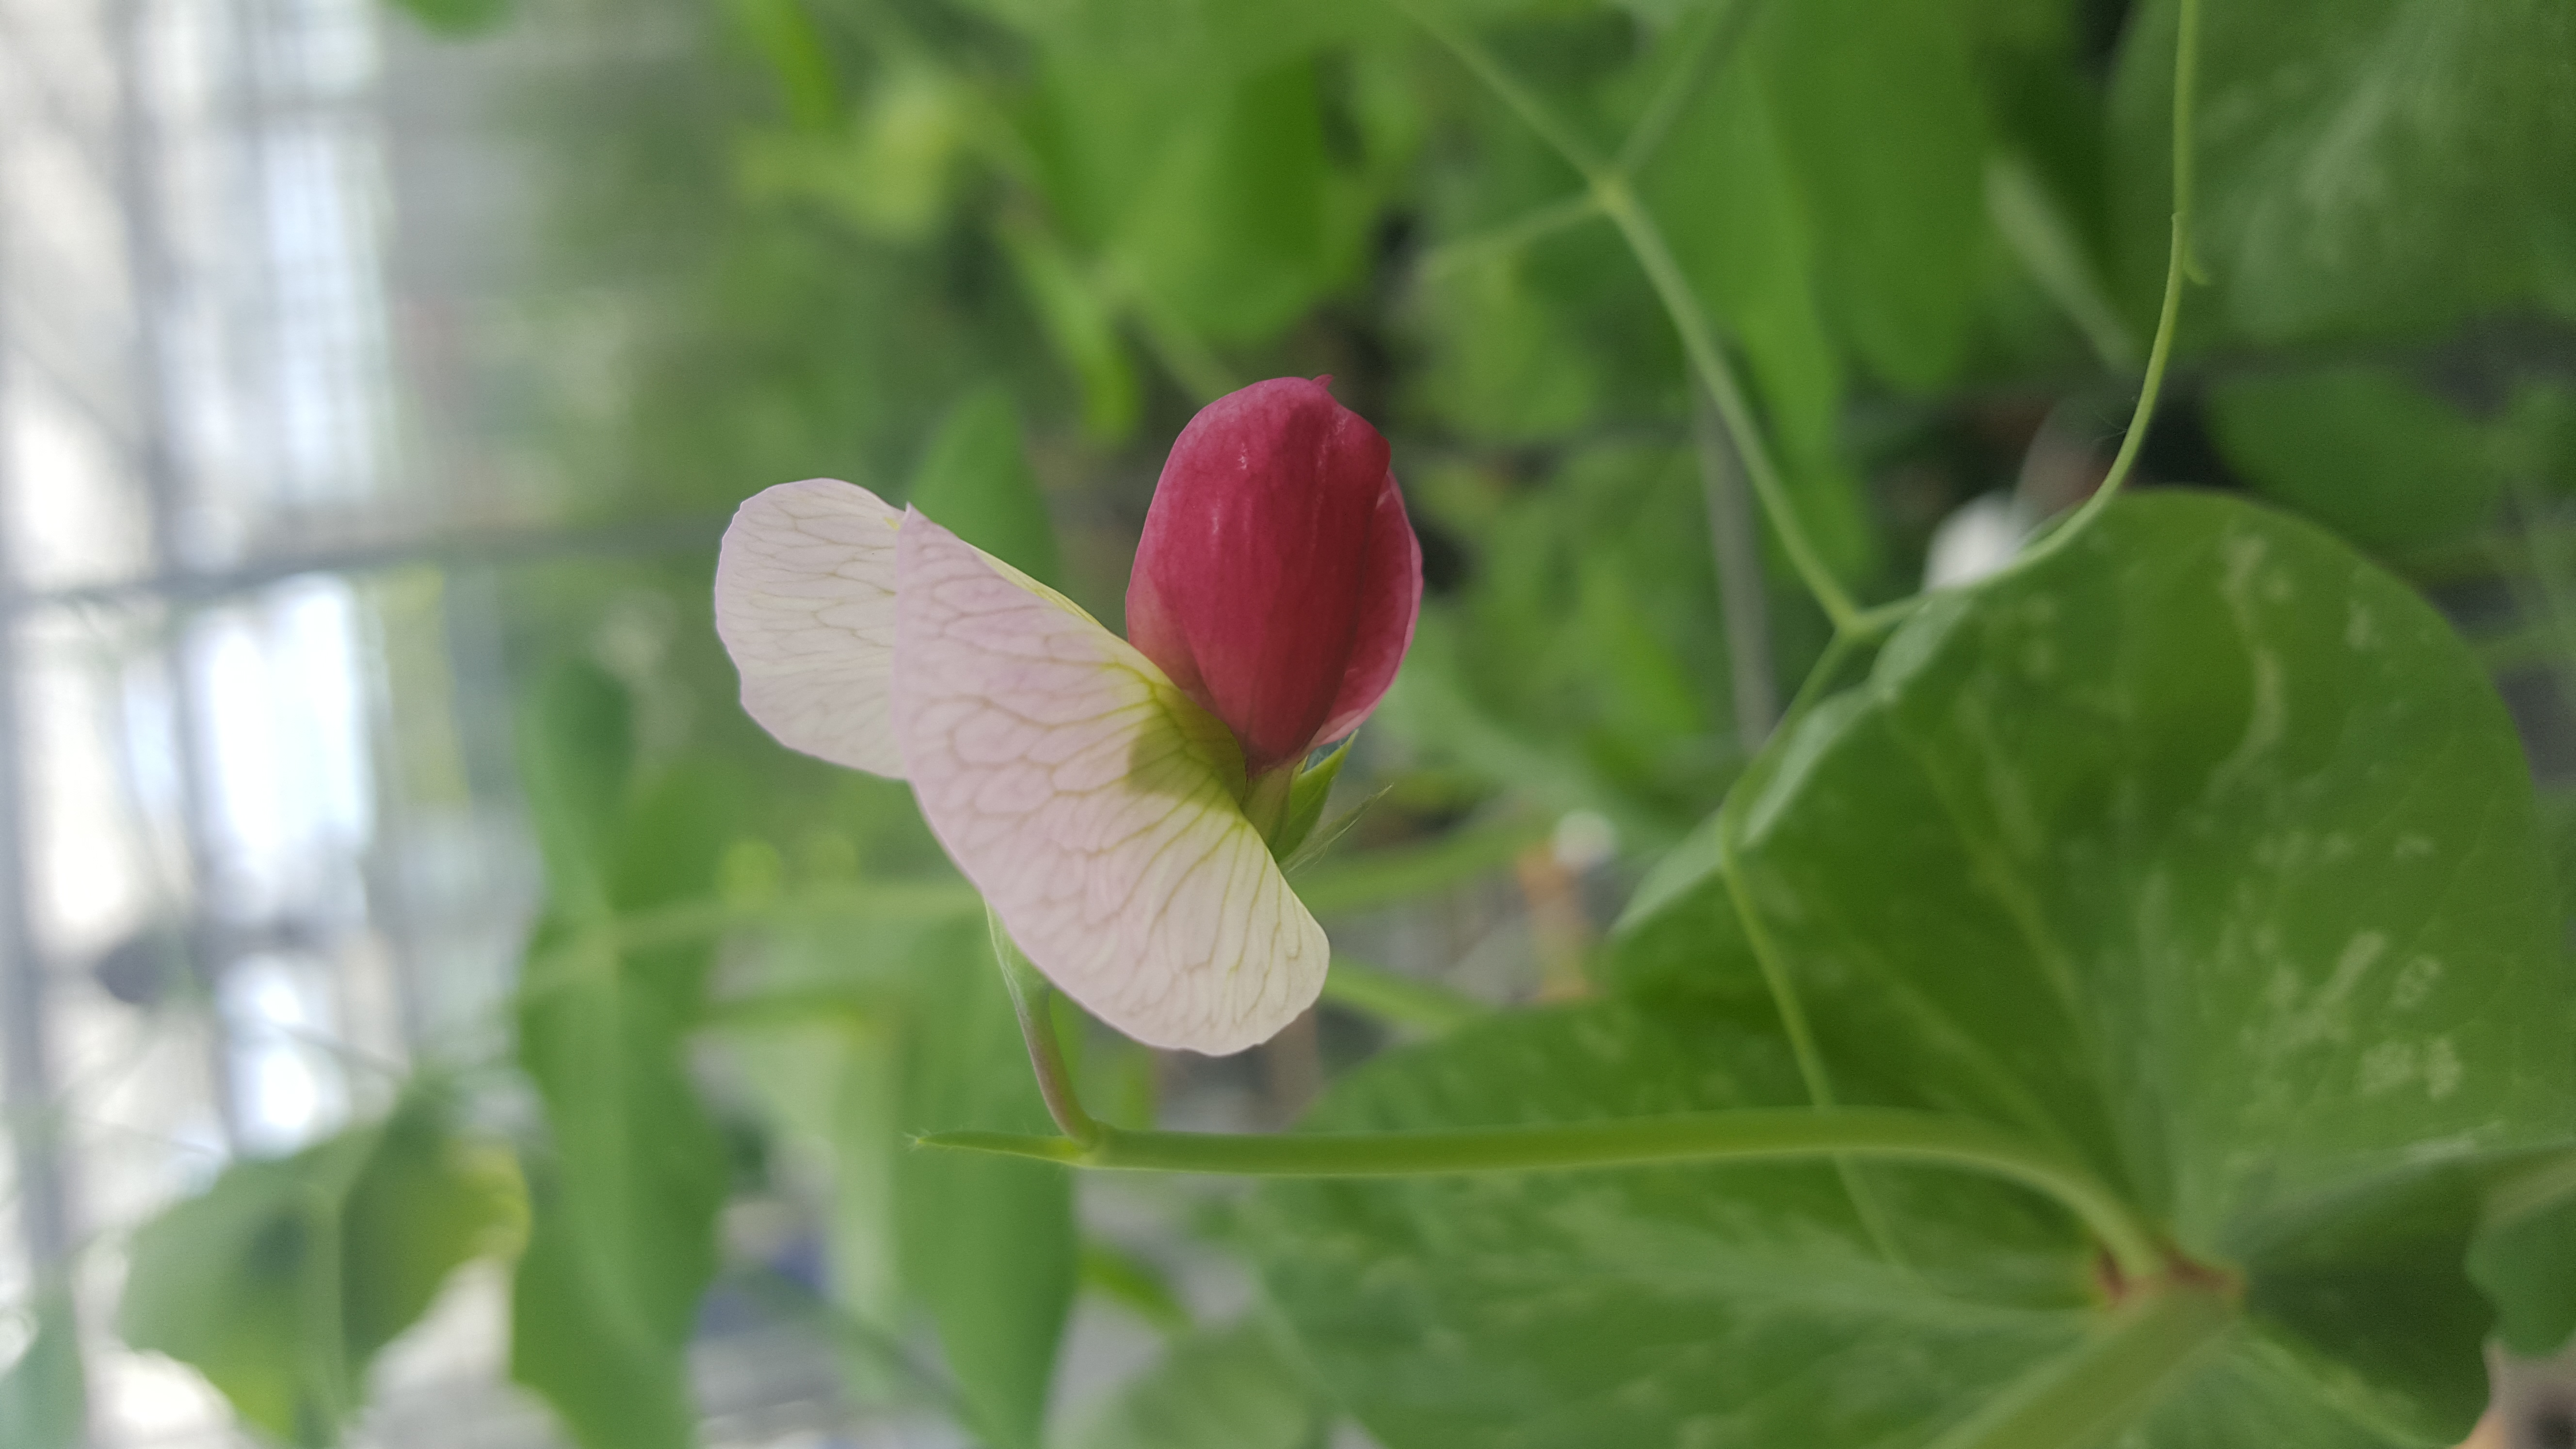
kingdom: Plantae
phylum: Tracheophyta
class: Magnoliopsida
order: Fabales
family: Fabaceae
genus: Lathyrus
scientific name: Lathyrus oleraceus
